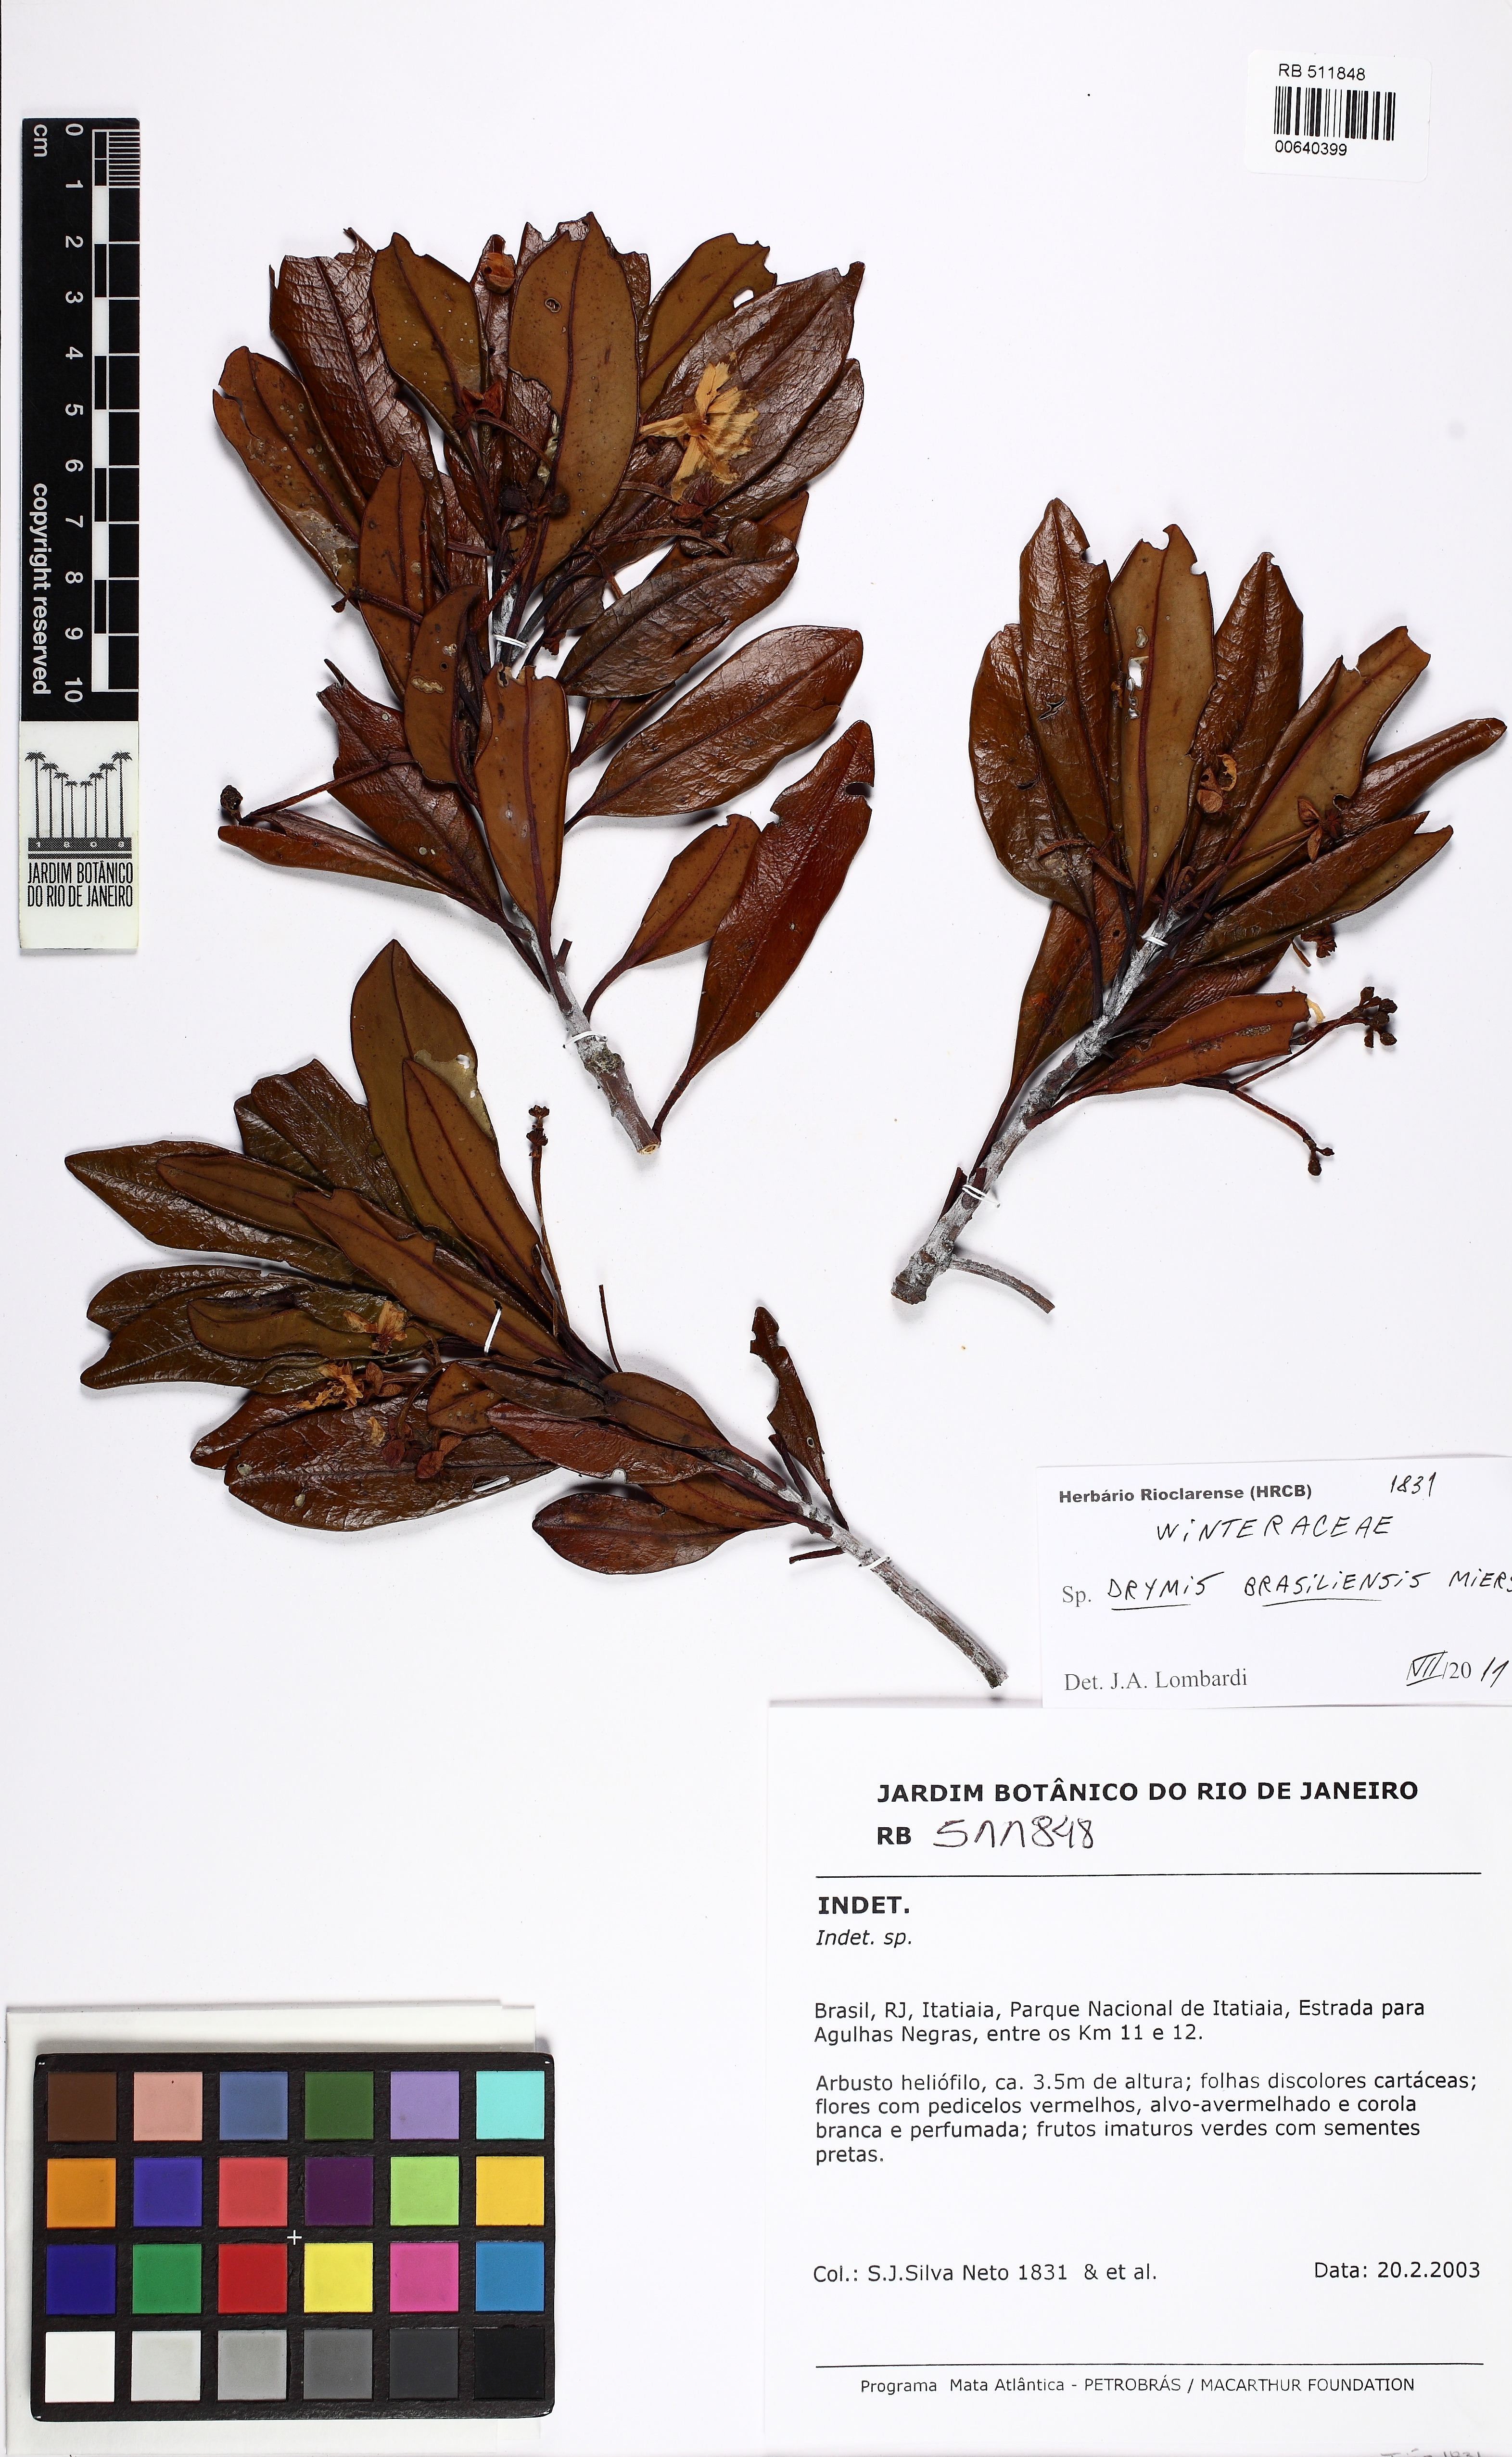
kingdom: Plantae
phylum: Tracheophyta
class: Magnoliopsida
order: Canellales
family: Winteraceae
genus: Drimys
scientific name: Drimys brasiliensis
